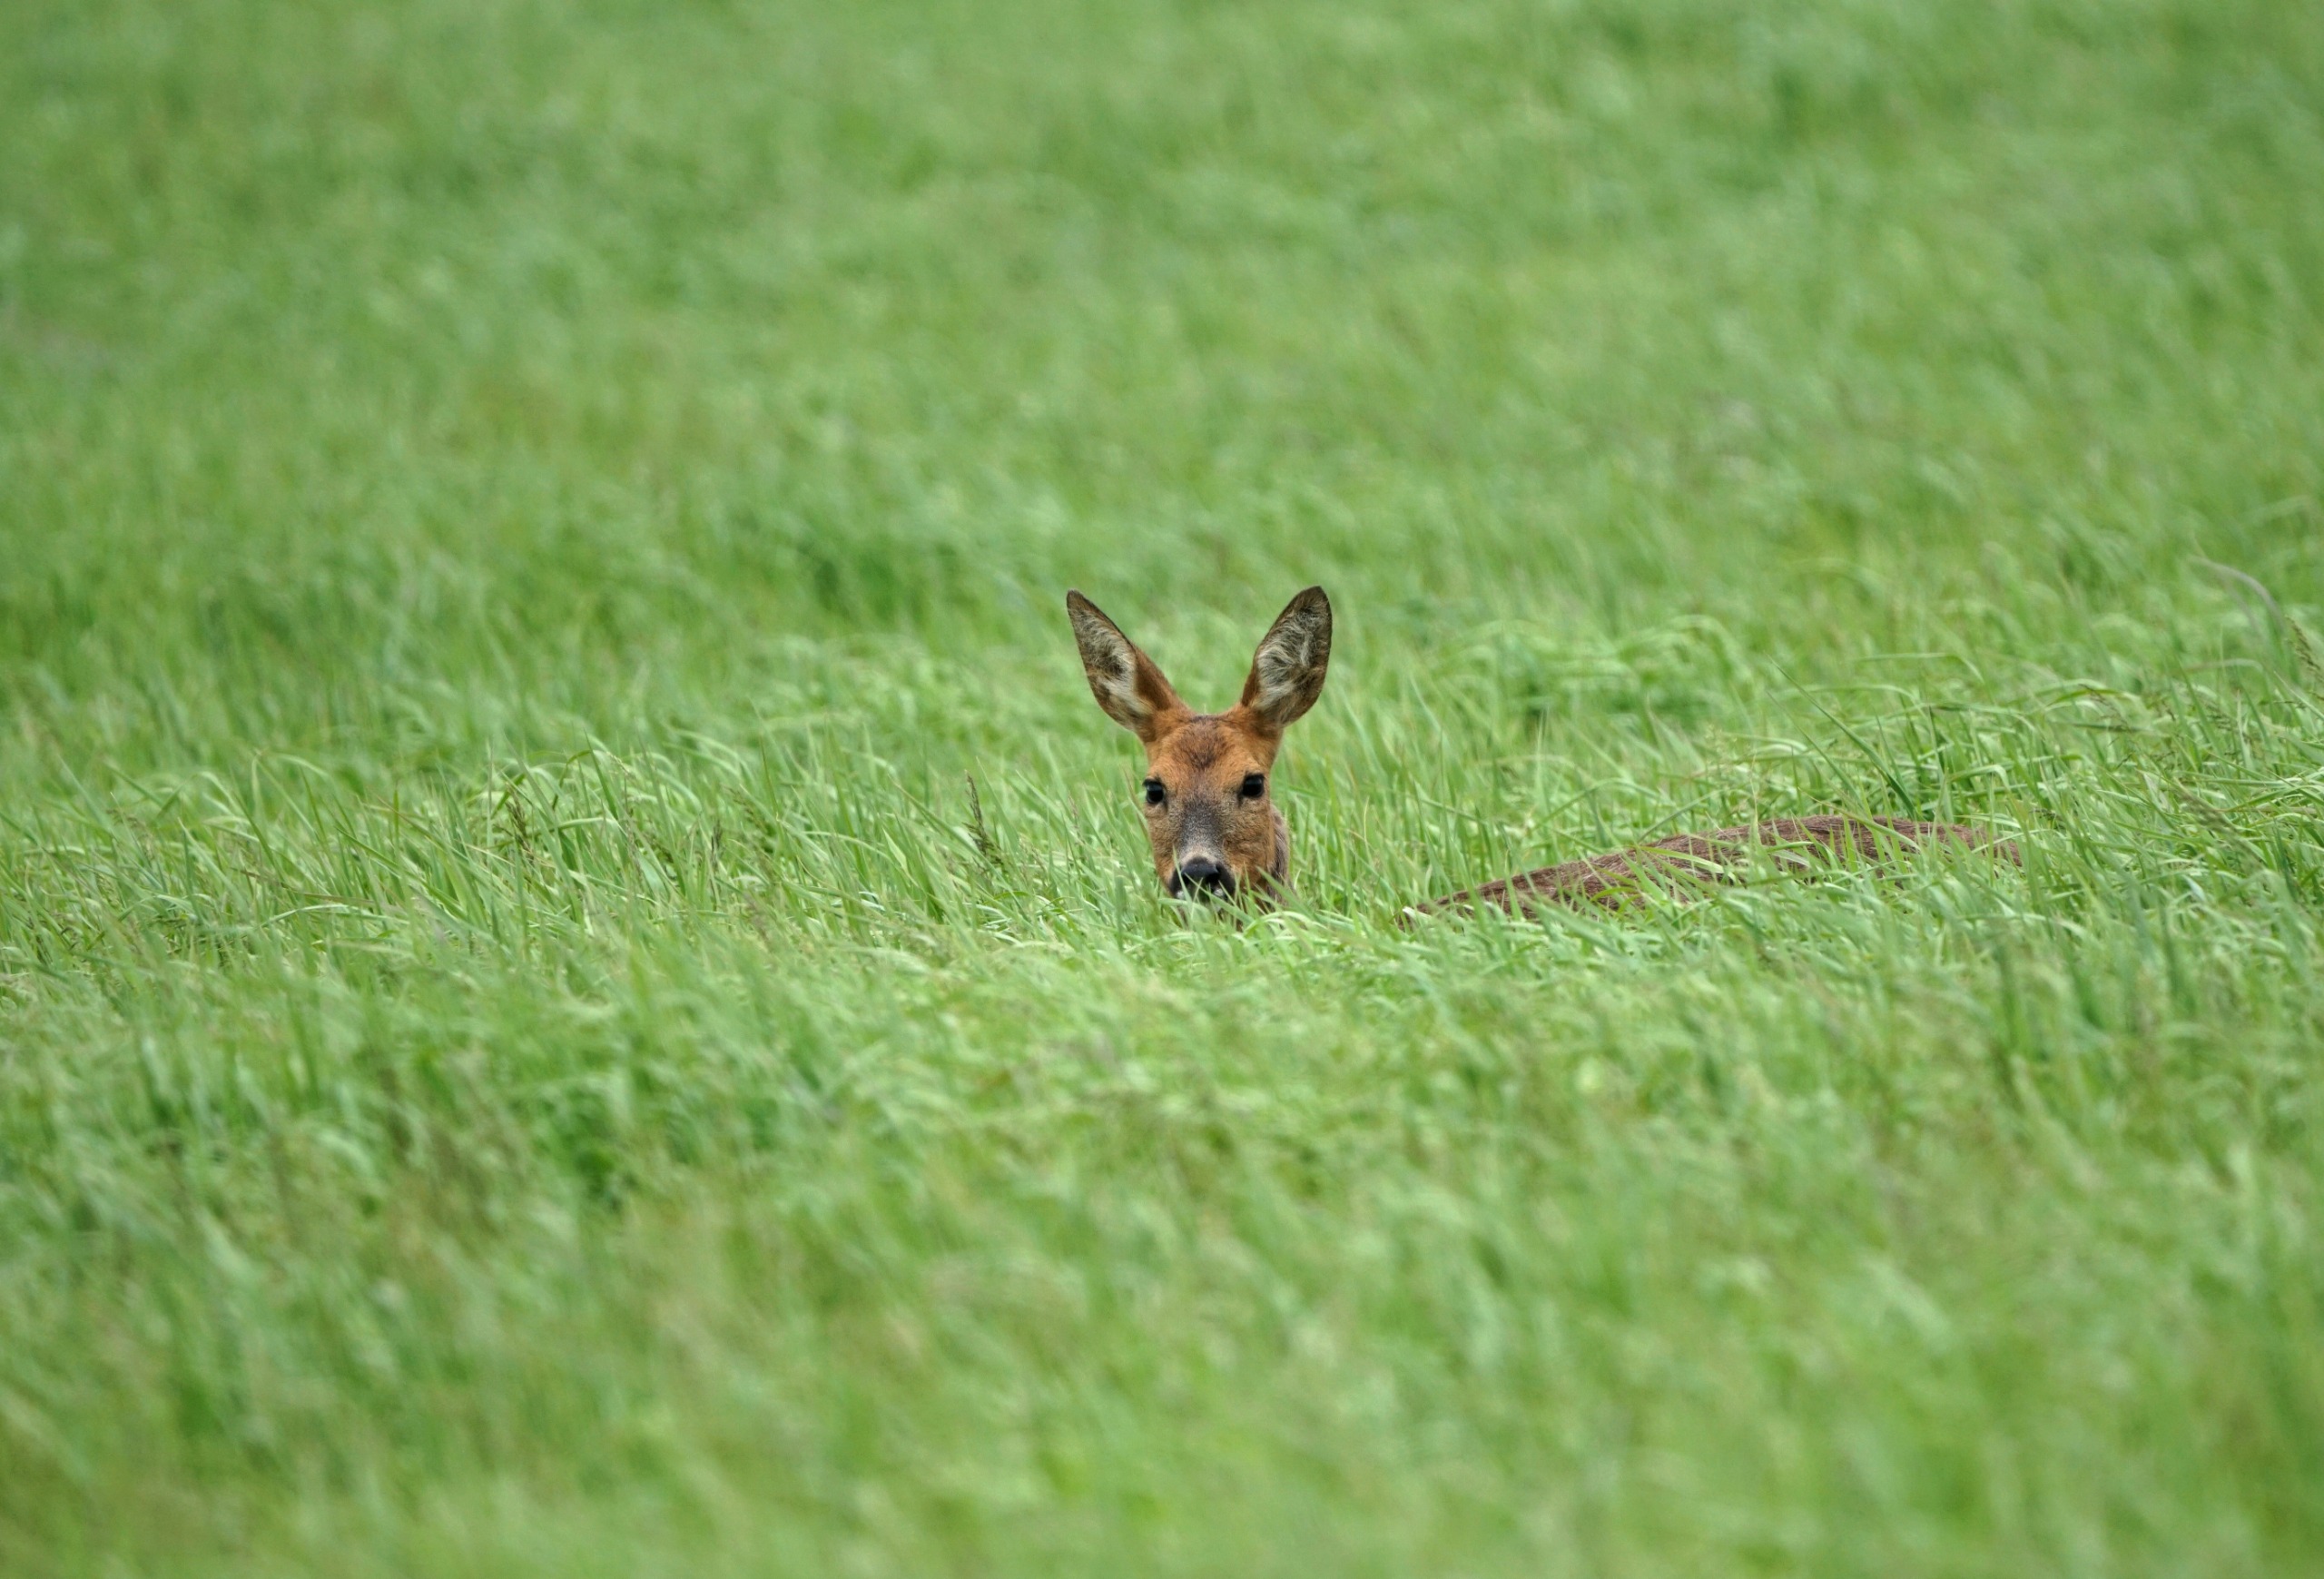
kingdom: Animalia
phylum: Chordata
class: Mammalia
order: Artiodactyla
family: Cervidae
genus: Capreolus
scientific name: Capreolus capreolus
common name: Rådyr
